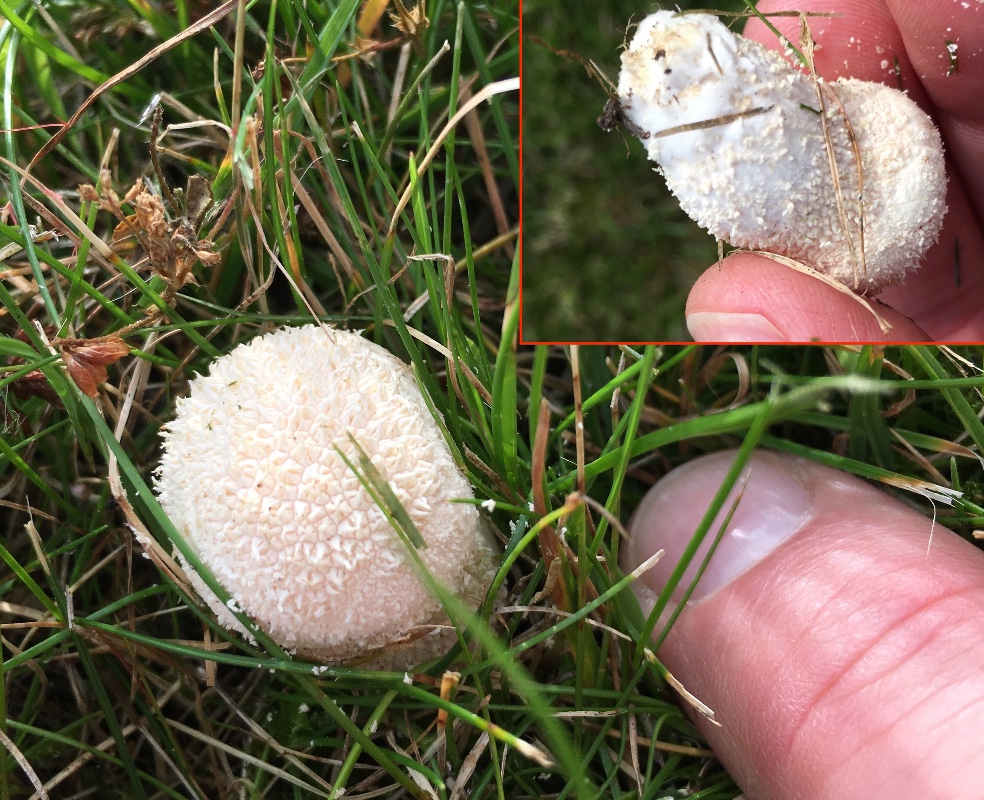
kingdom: Fungi
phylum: Basidiomycota
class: Agaricomycetes
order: Agaricales
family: Agaricaceae
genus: Lycoperdon
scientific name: Lycoperdon
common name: støvbold
